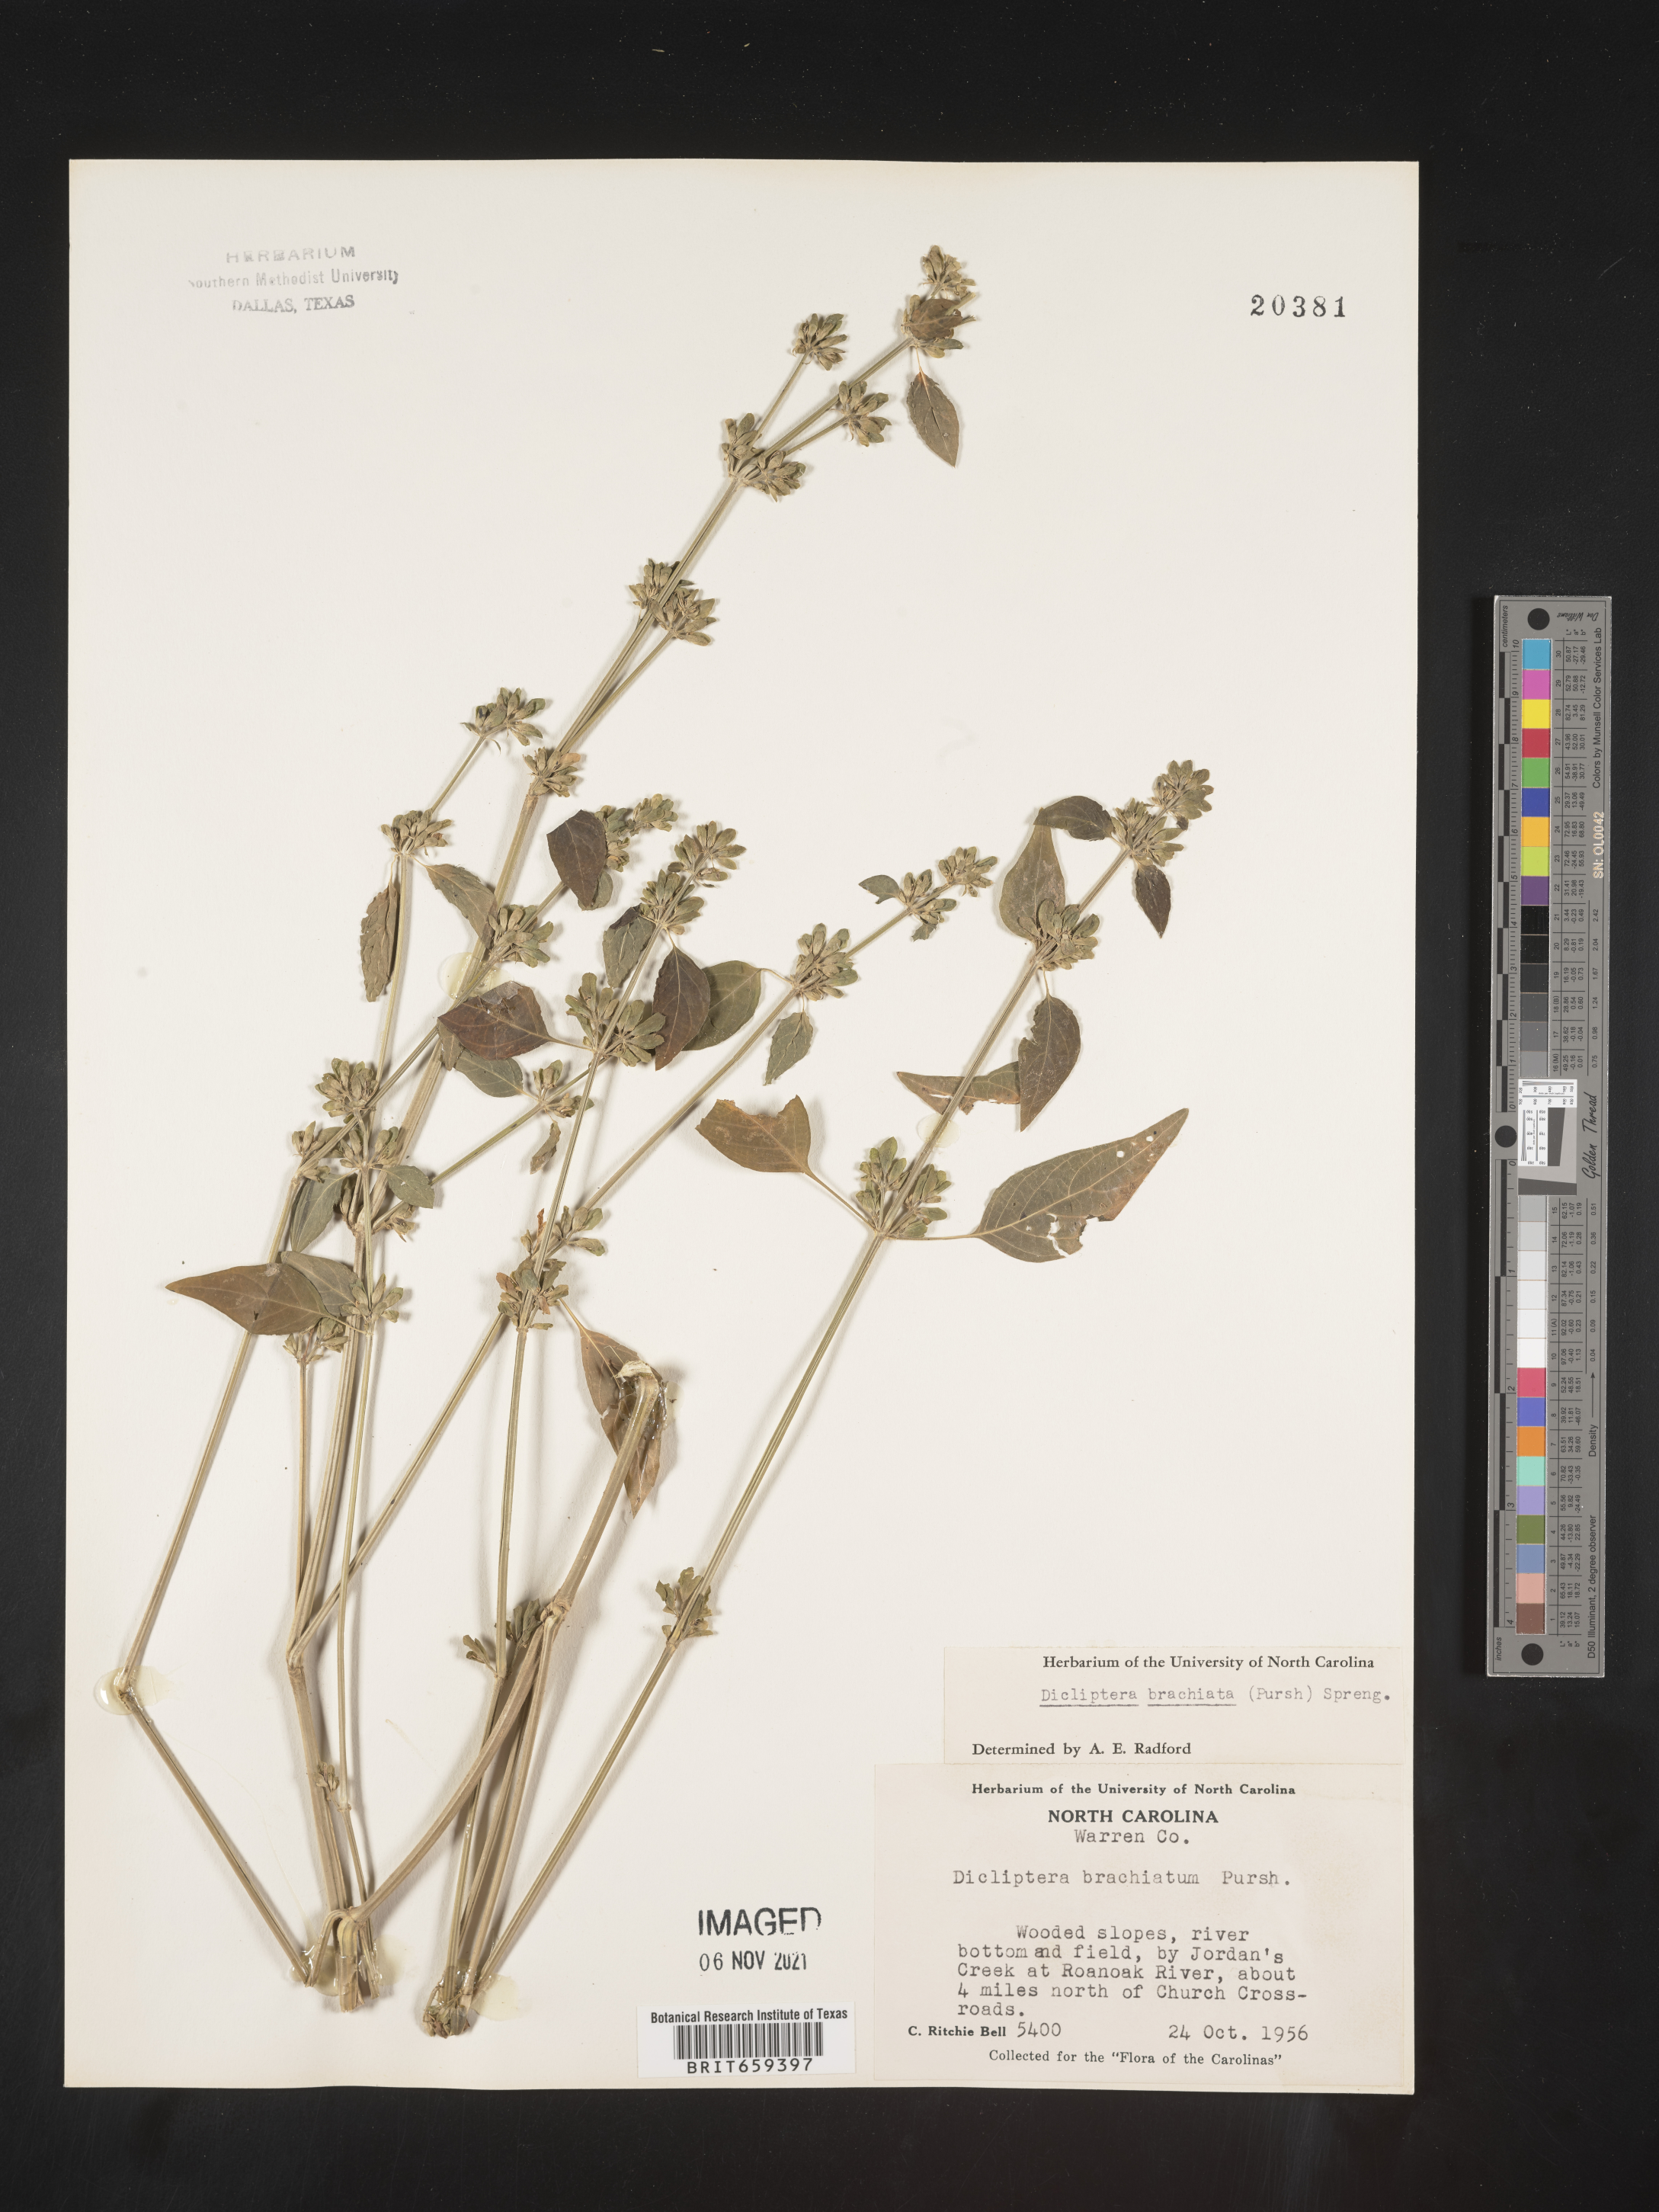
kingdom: Plantae
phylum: Tracheophyta
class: Magnoliopsida
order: Lamiales
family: Acanthaceae
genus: Dicliptera
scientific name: Dicliptera brachiata
